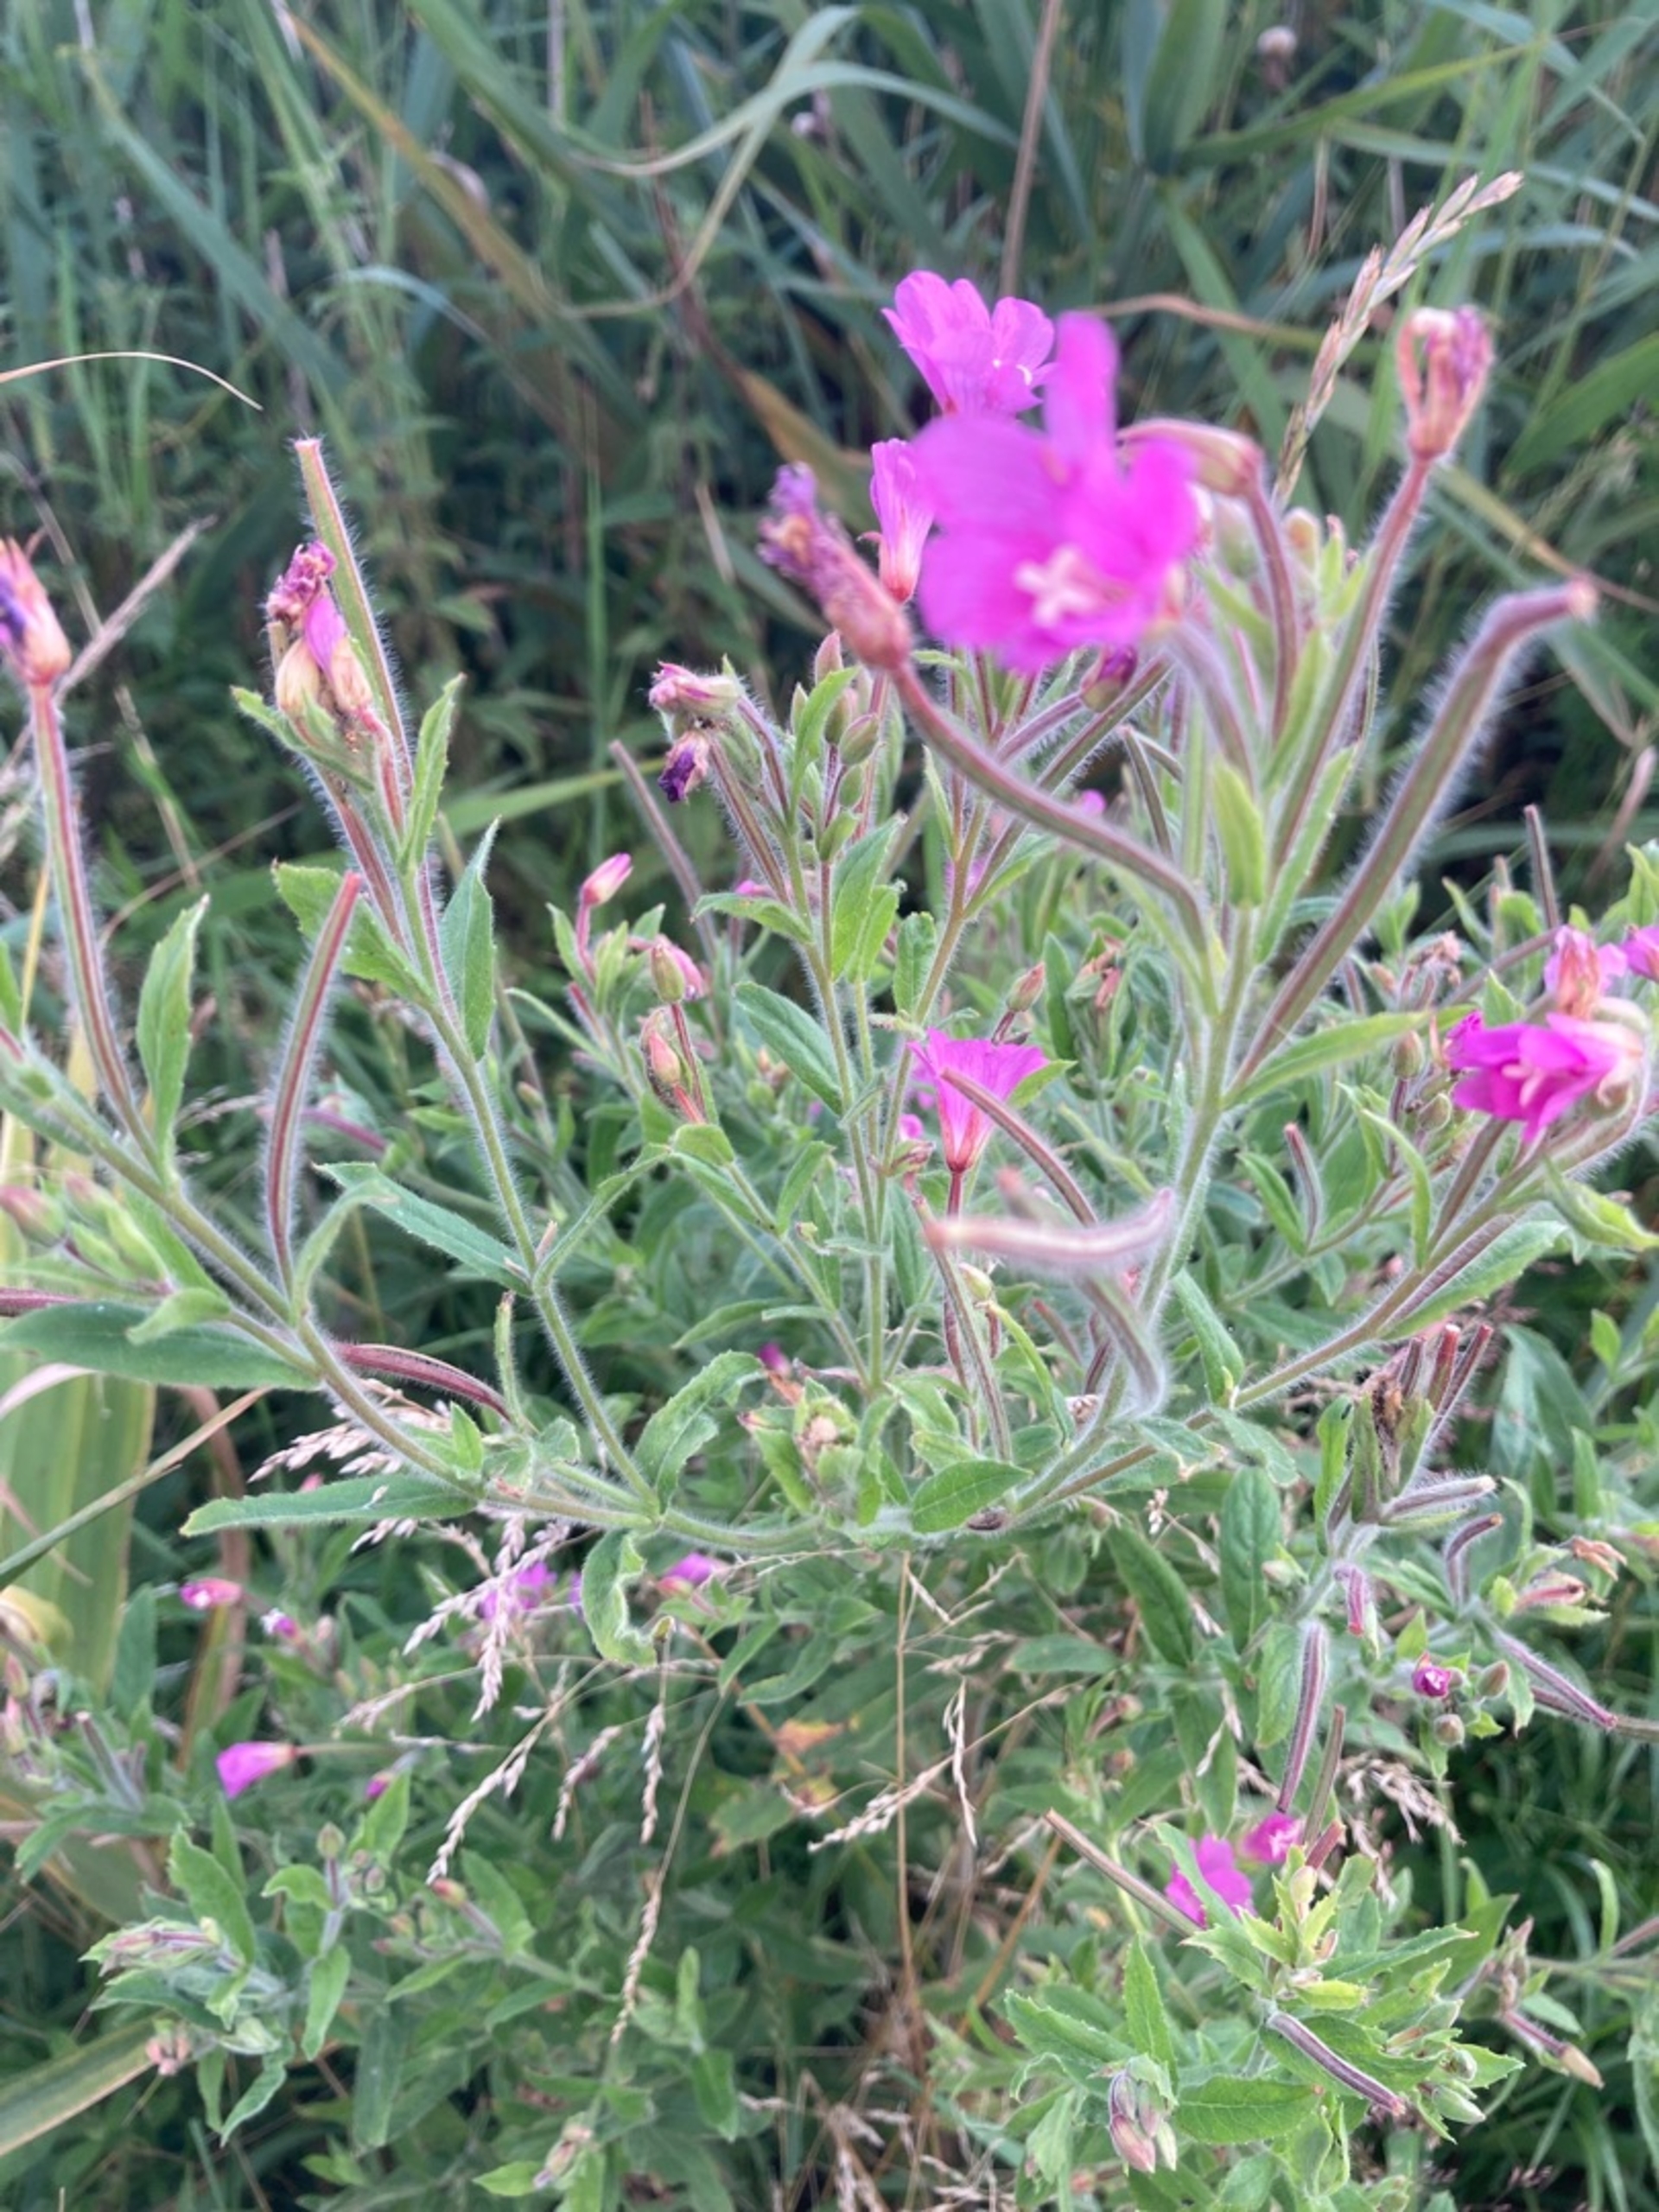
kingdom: Plantae
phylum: Tracheophyta
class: Magnoliopsida
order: Myrtales
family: Onagraceae
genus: Epilobium
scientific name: Epilobium hirsutum
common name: Lådden dueurt
